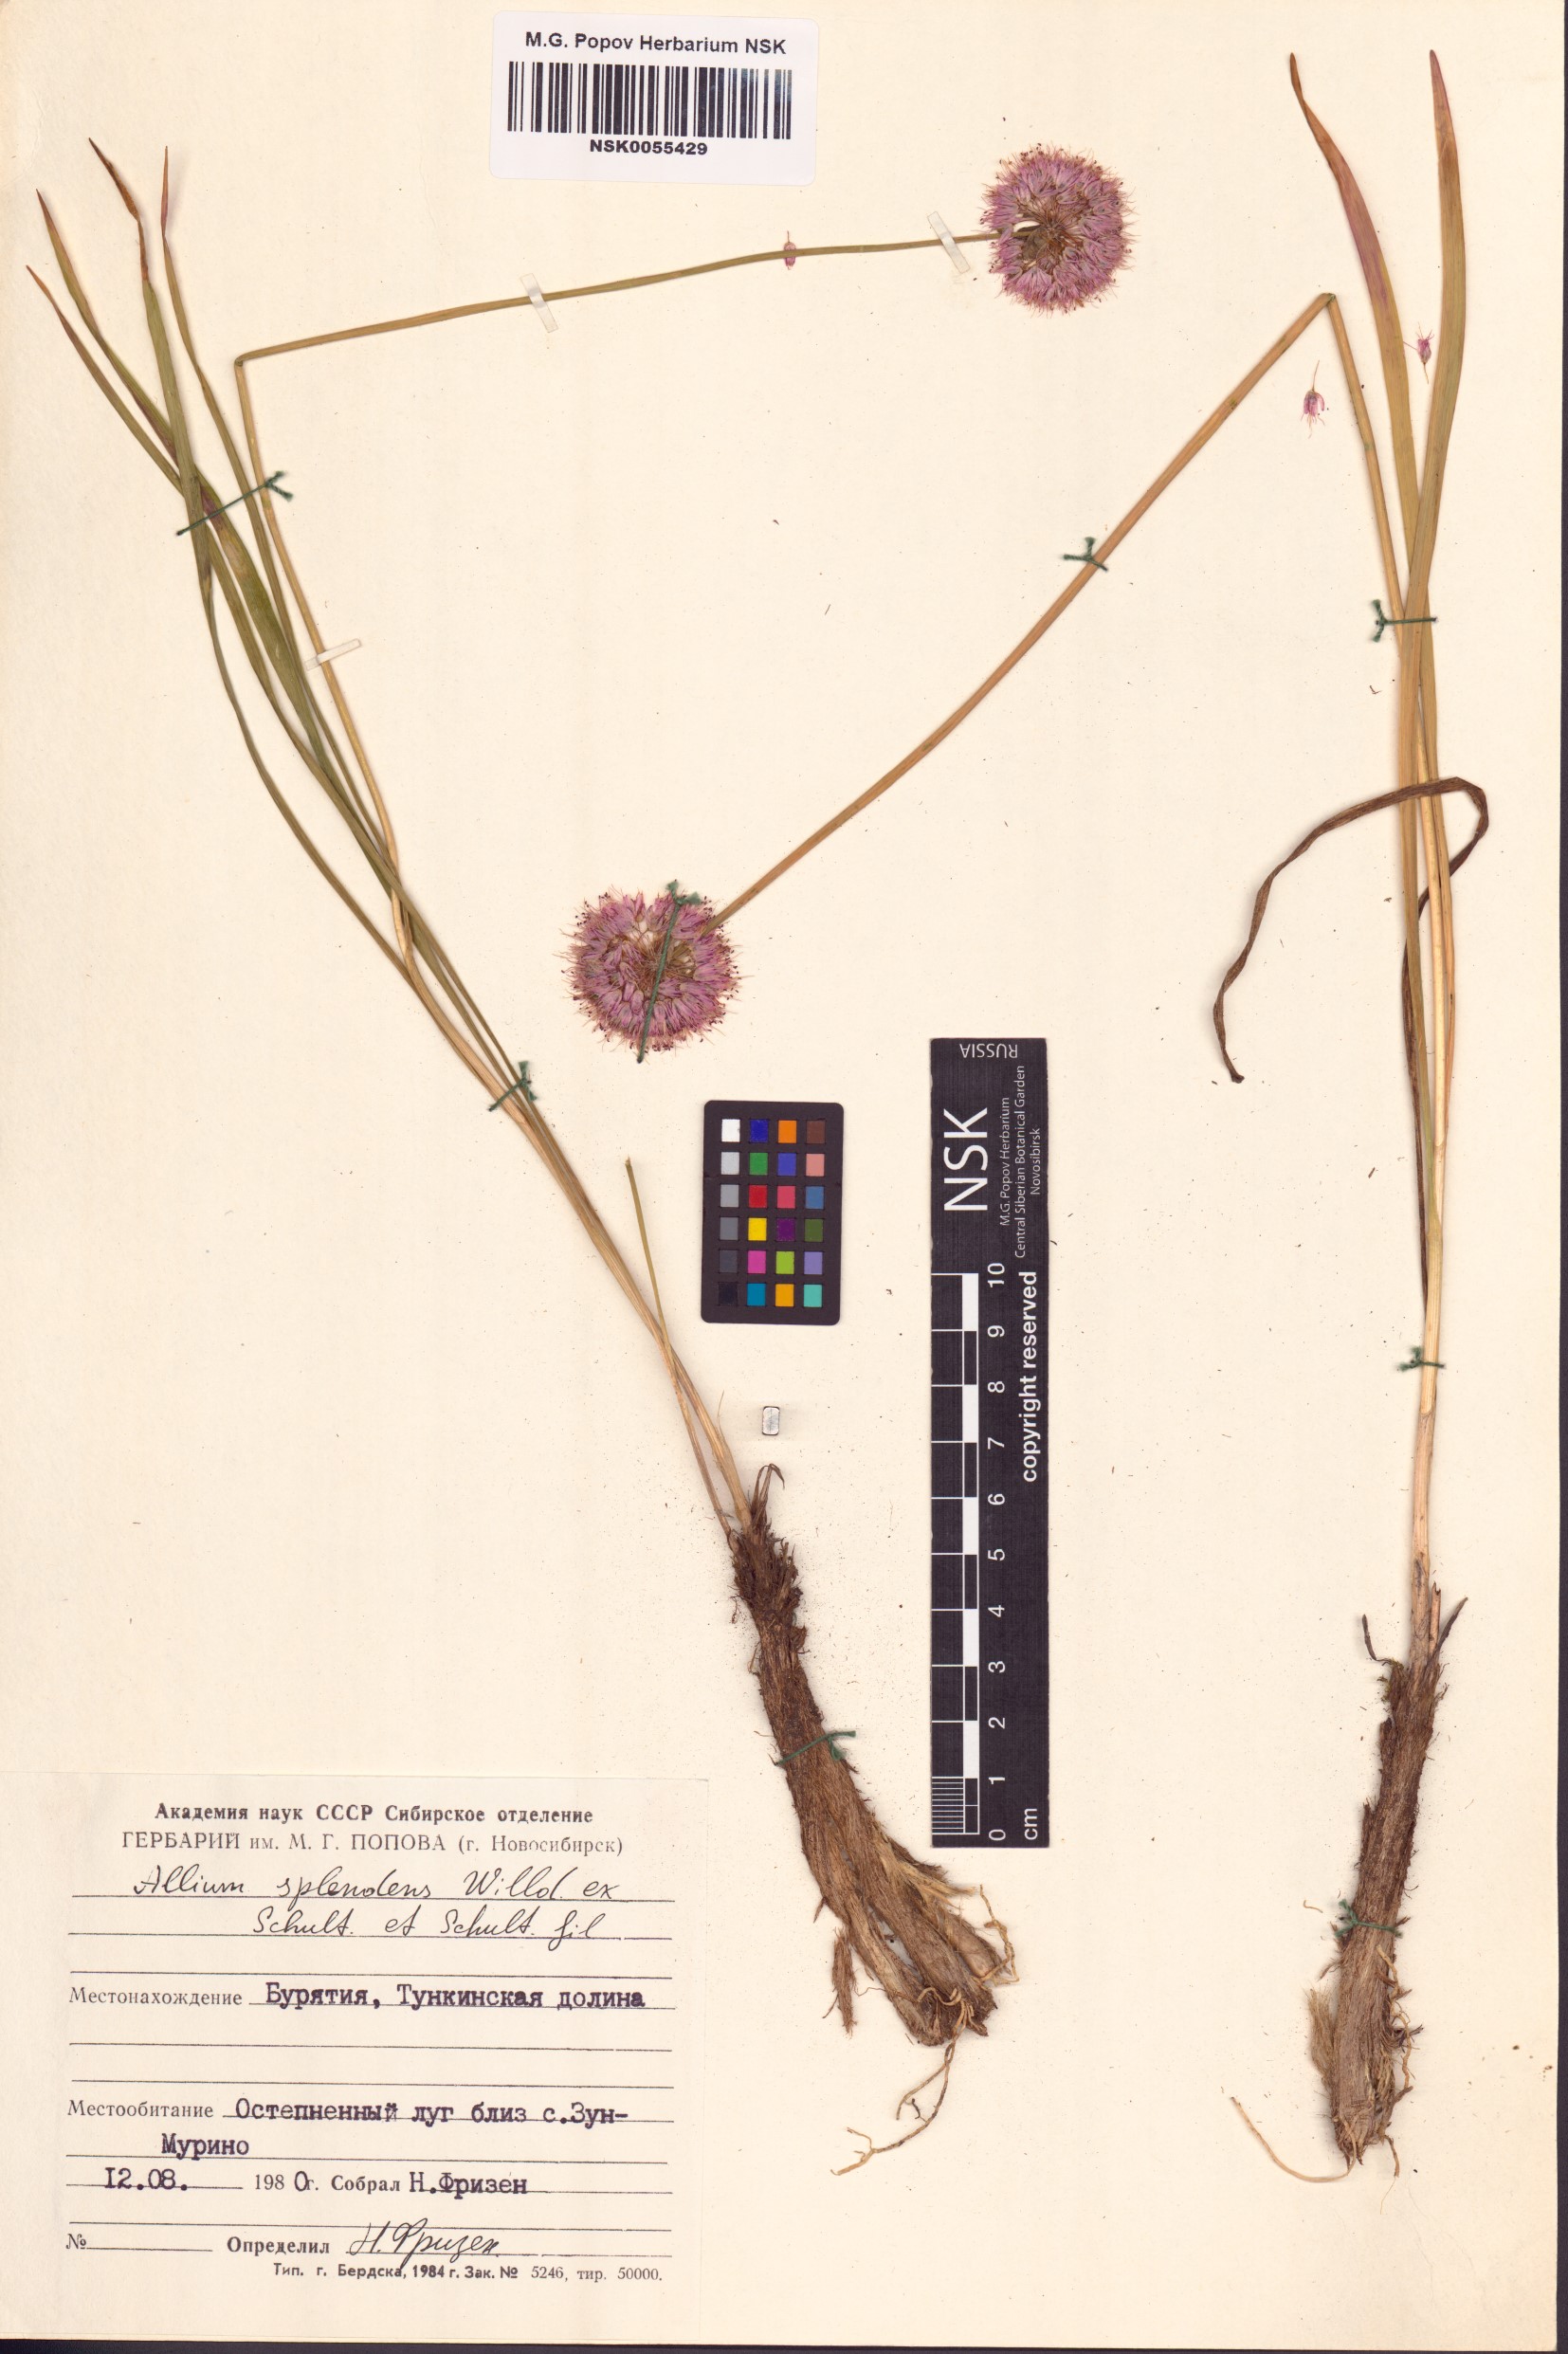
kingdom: Plantae
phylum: Tracheophyta
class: Liliopsida
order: Asparagales
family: Amaryllidaceae
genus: Allium
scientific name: Allium splendens
